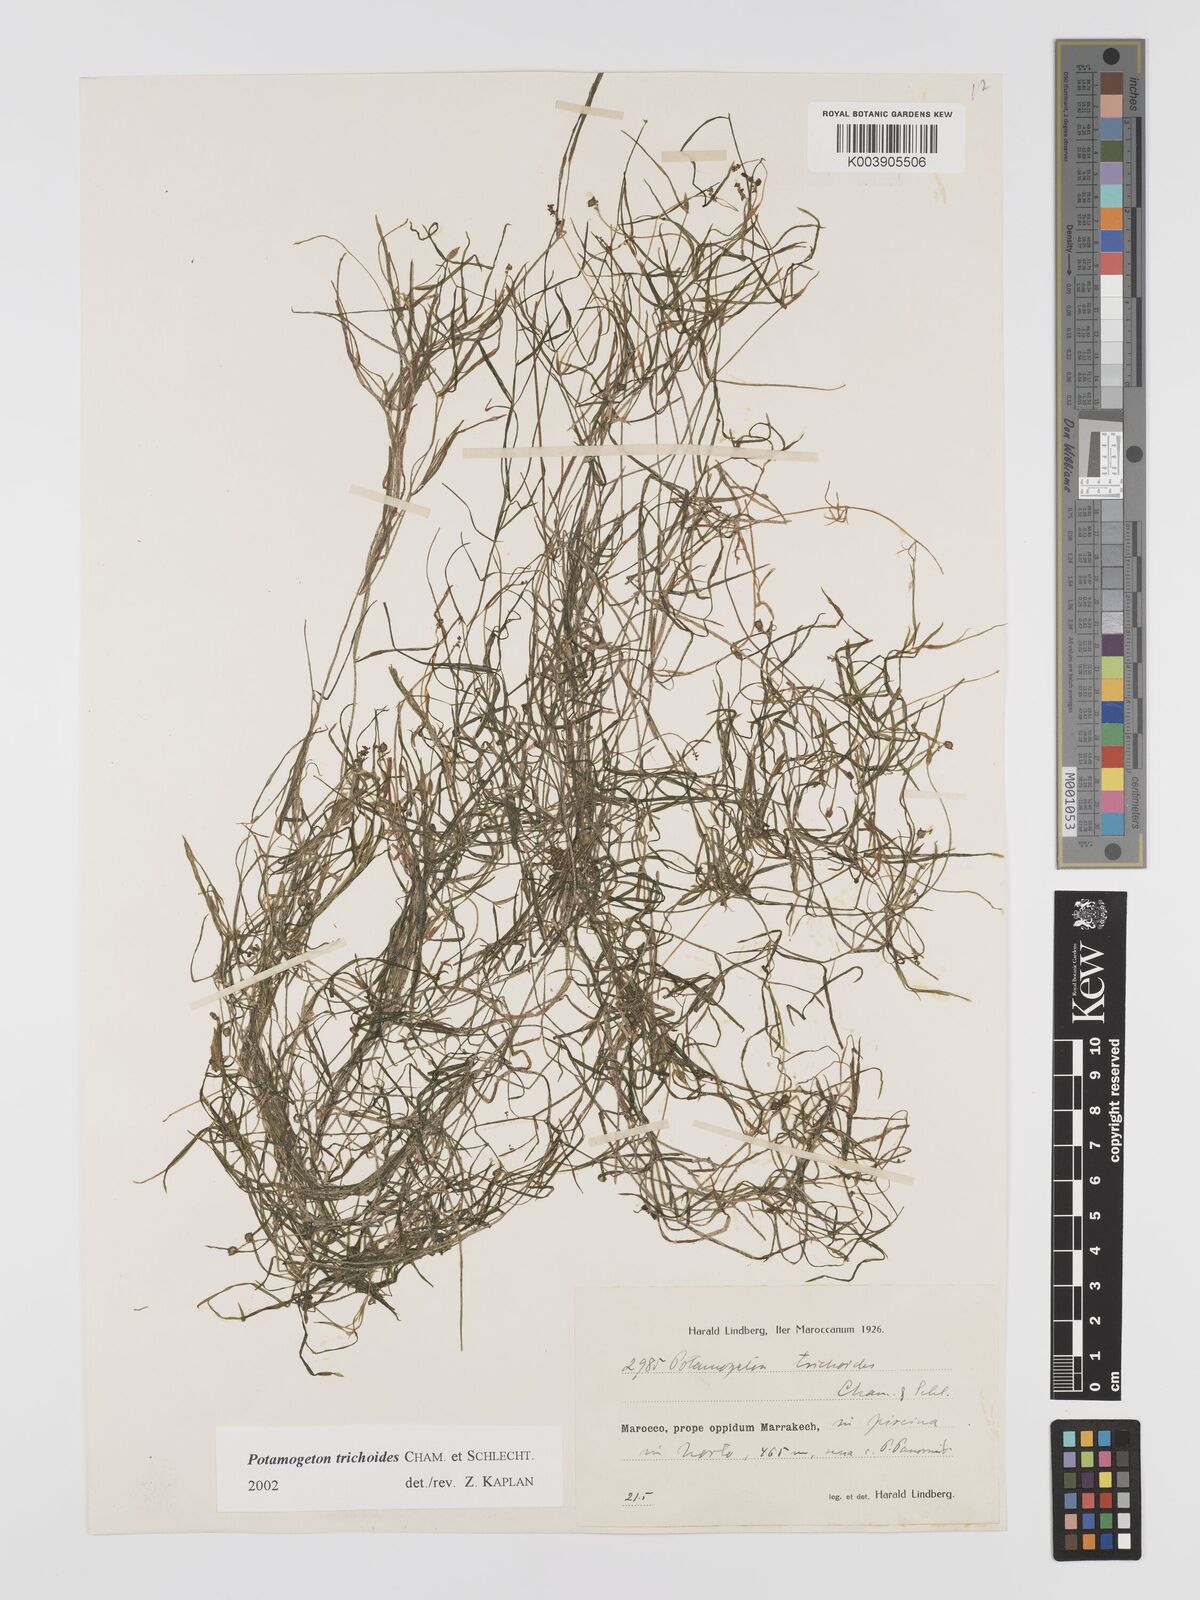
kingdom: Plantae
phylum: Tracheophyta
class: Liliopsida
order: Alismatales
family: Potamogetonaceae
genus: Potamogeton
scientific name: Potamogeton trichoides
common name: Hairlike pondweed
